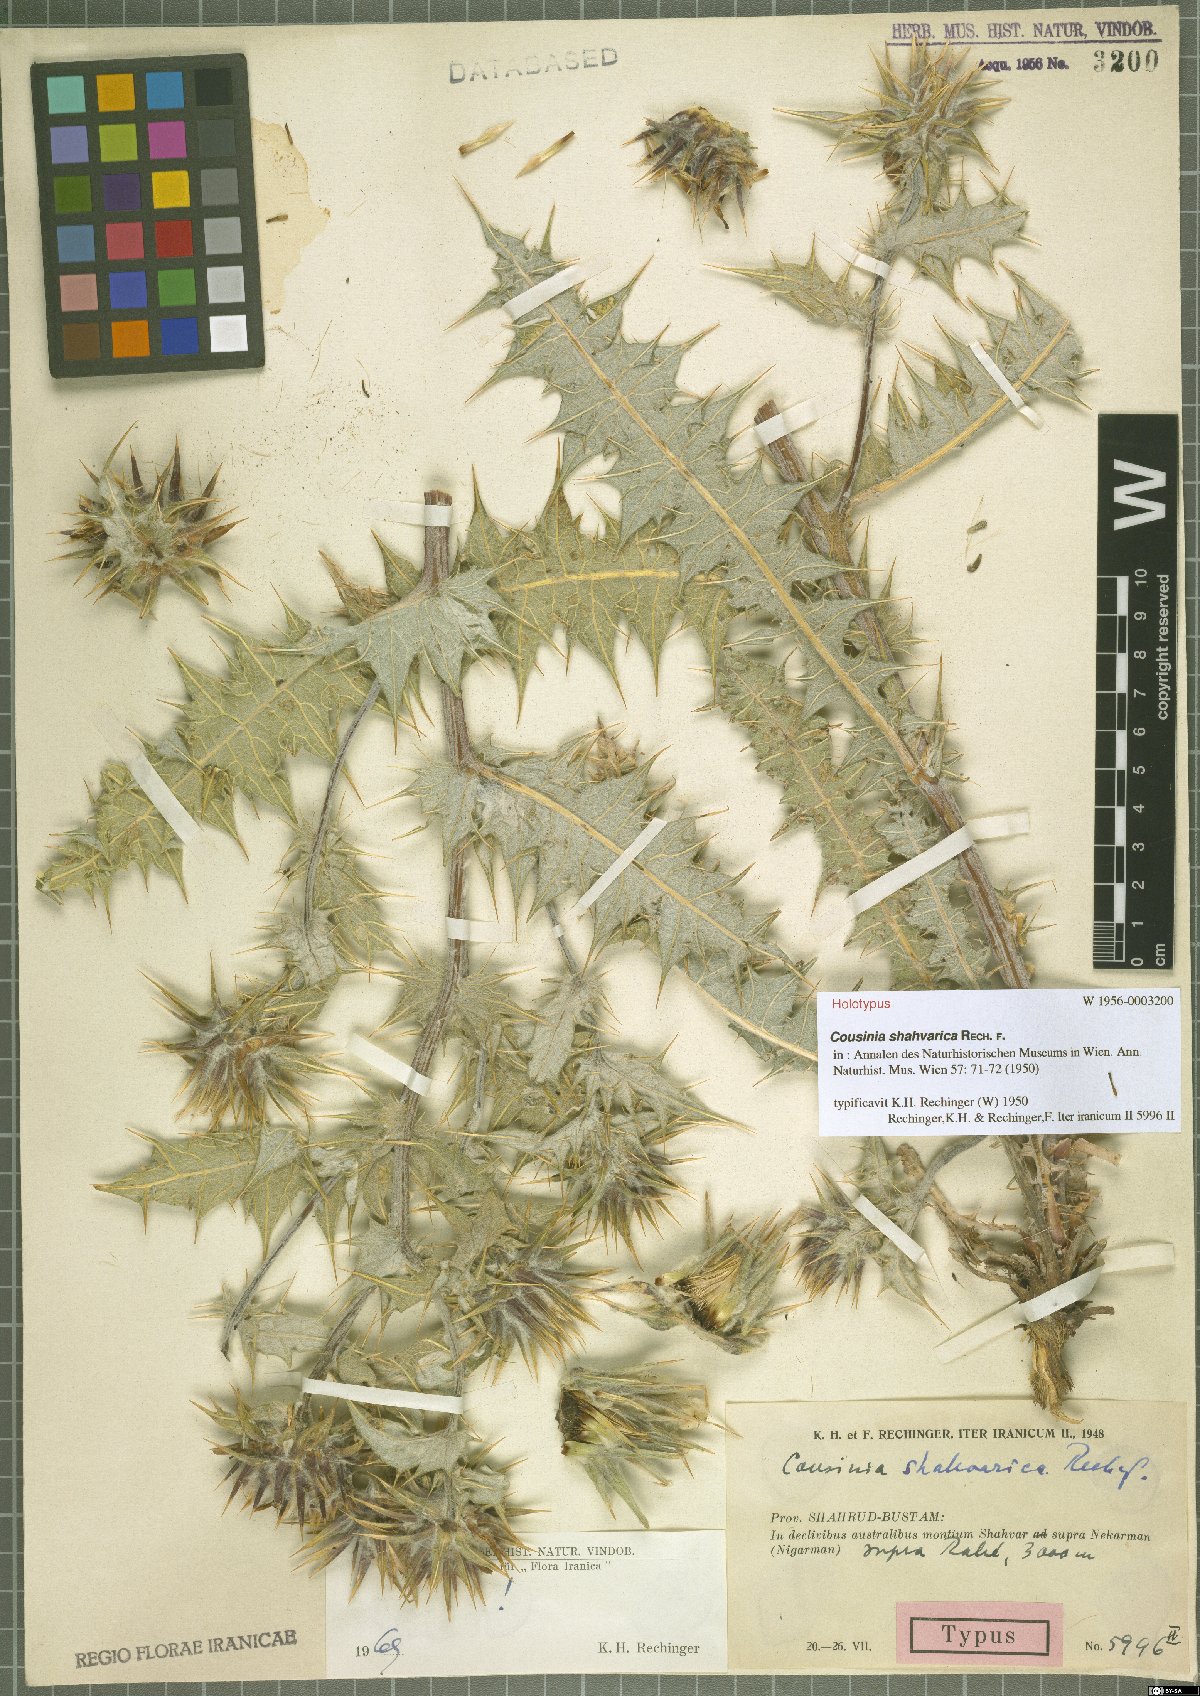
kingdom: Plantae
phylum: Tracheophyta
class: Magnoliopsida
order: Asterales
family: Asteraceae
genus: Cousinia
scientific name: Cousinia shahvarica
